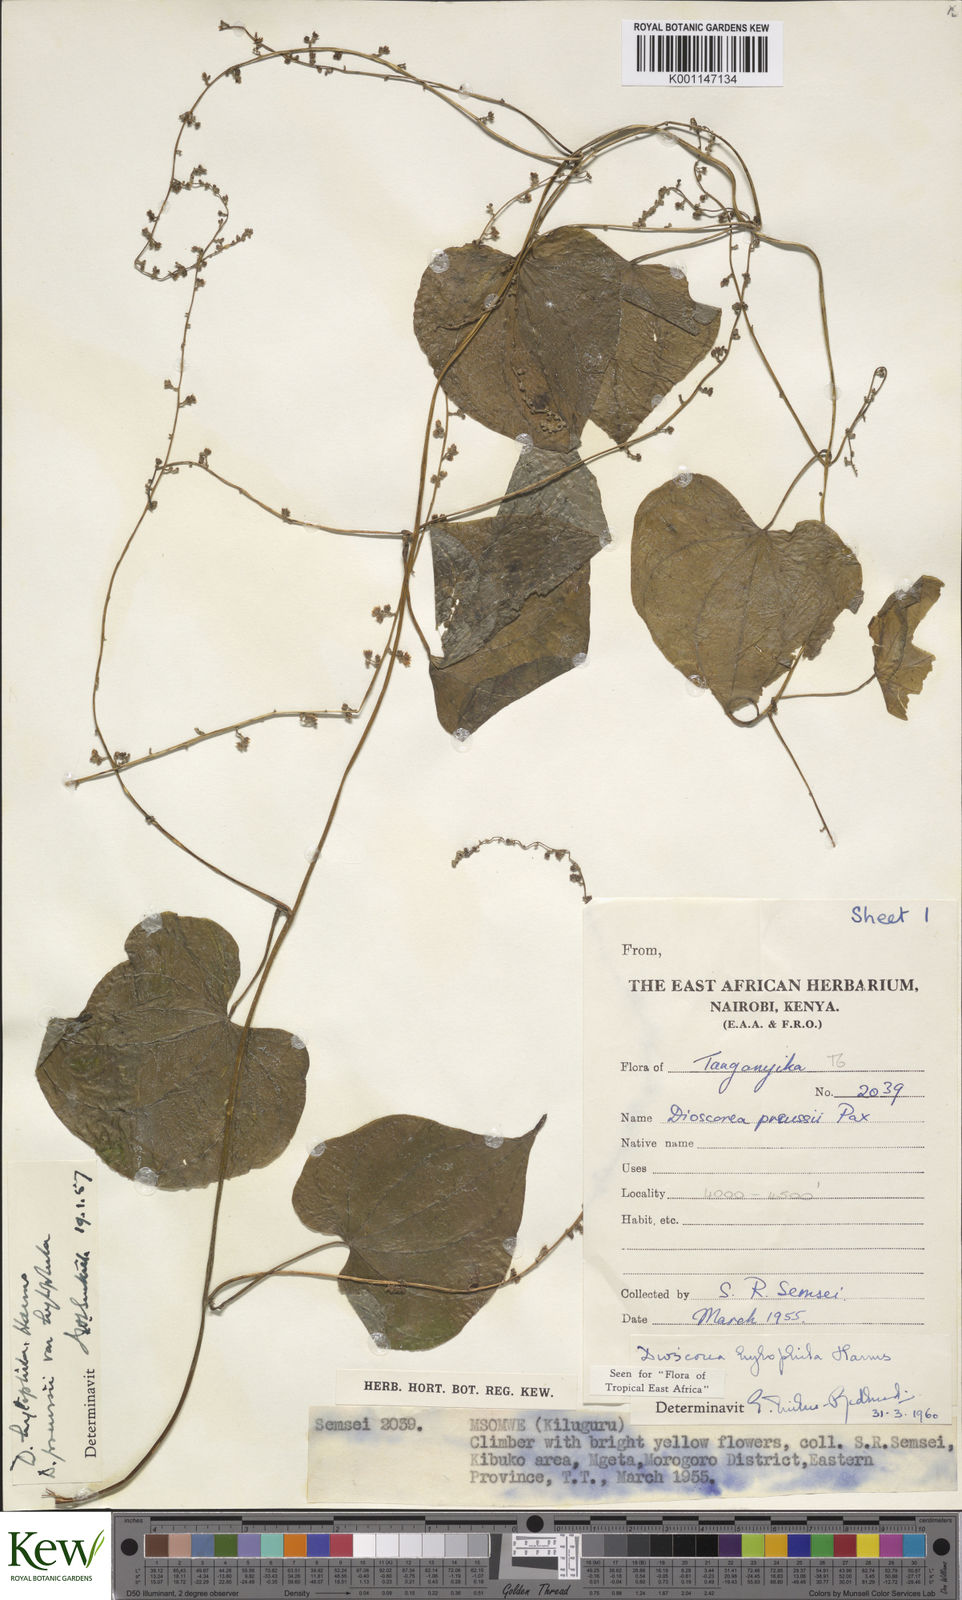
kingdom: Plantae
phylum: Tracheophyta
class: Liliopsida
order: Dioscoreales
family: Dioscoreaceae
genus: Dioscorea
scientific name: Dioscorea
